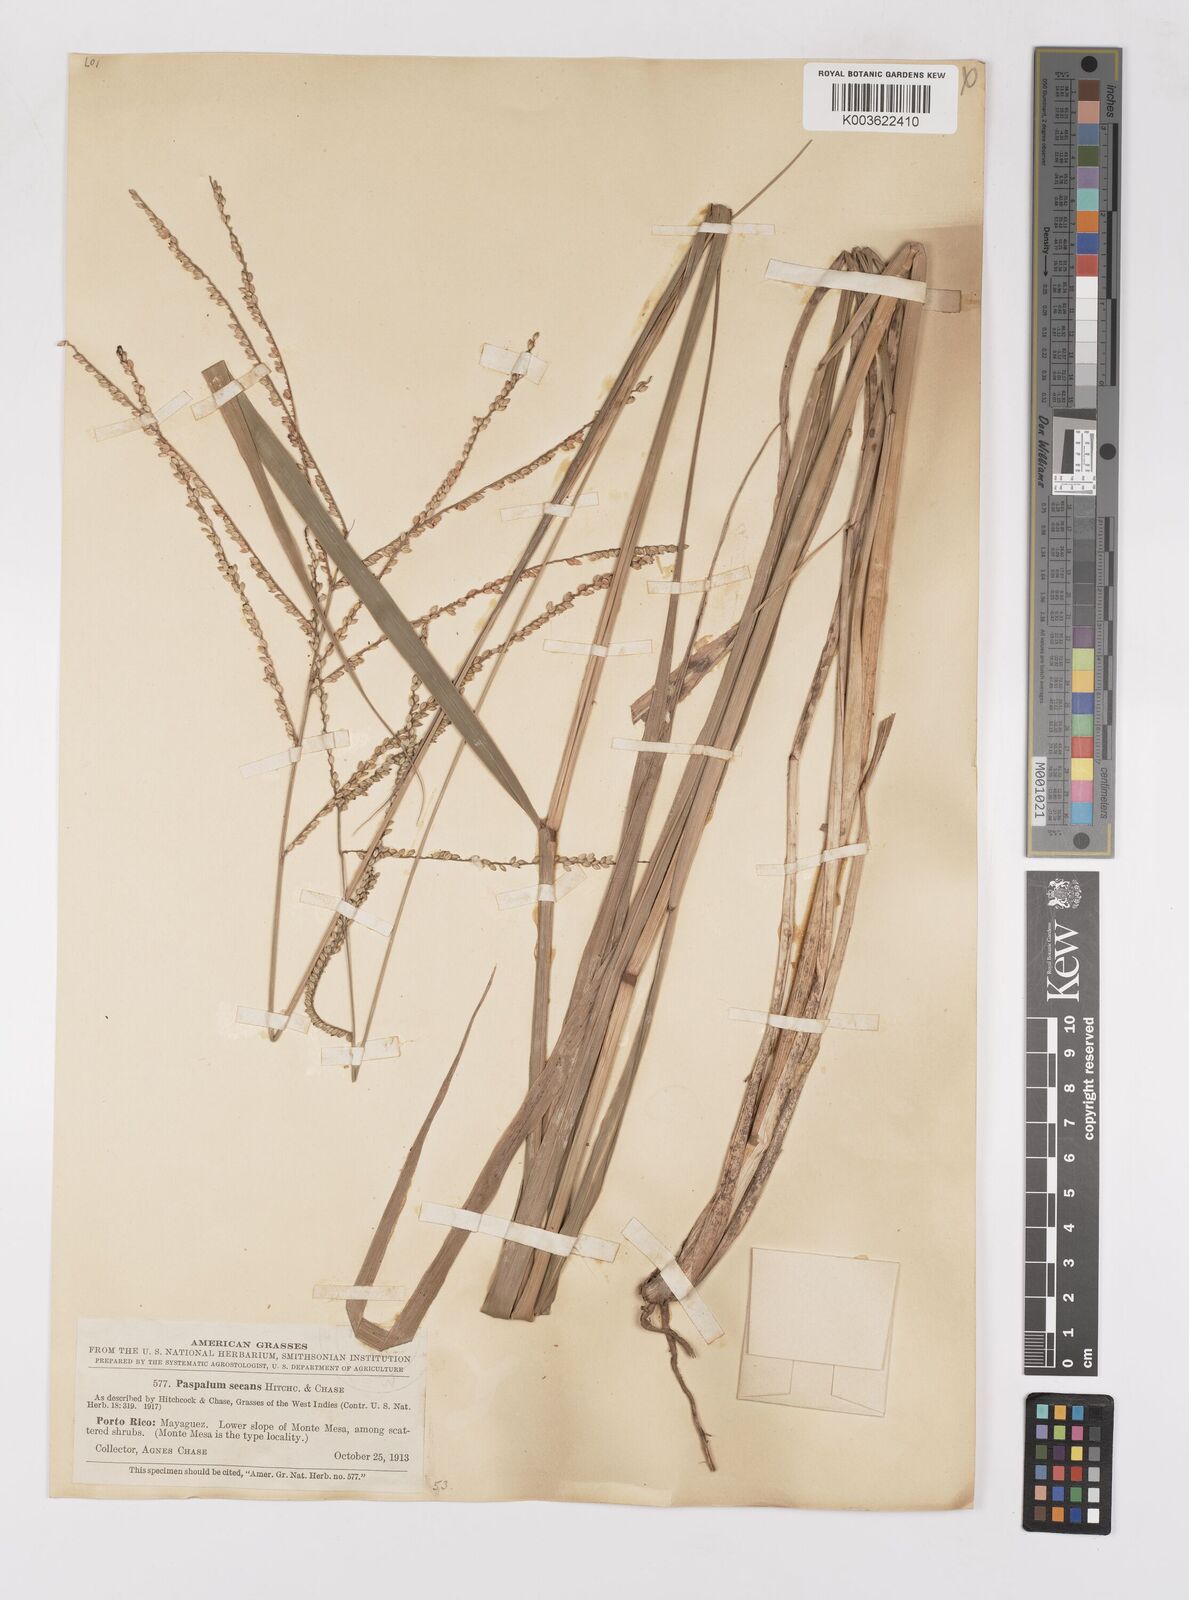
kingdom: Plantae
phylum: Tracheophyta
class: Liliopsida
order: Poales
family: Poaceae
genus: Paspalum
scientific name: Paspalum arundinaceum
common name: Thick ditch crowngrass
